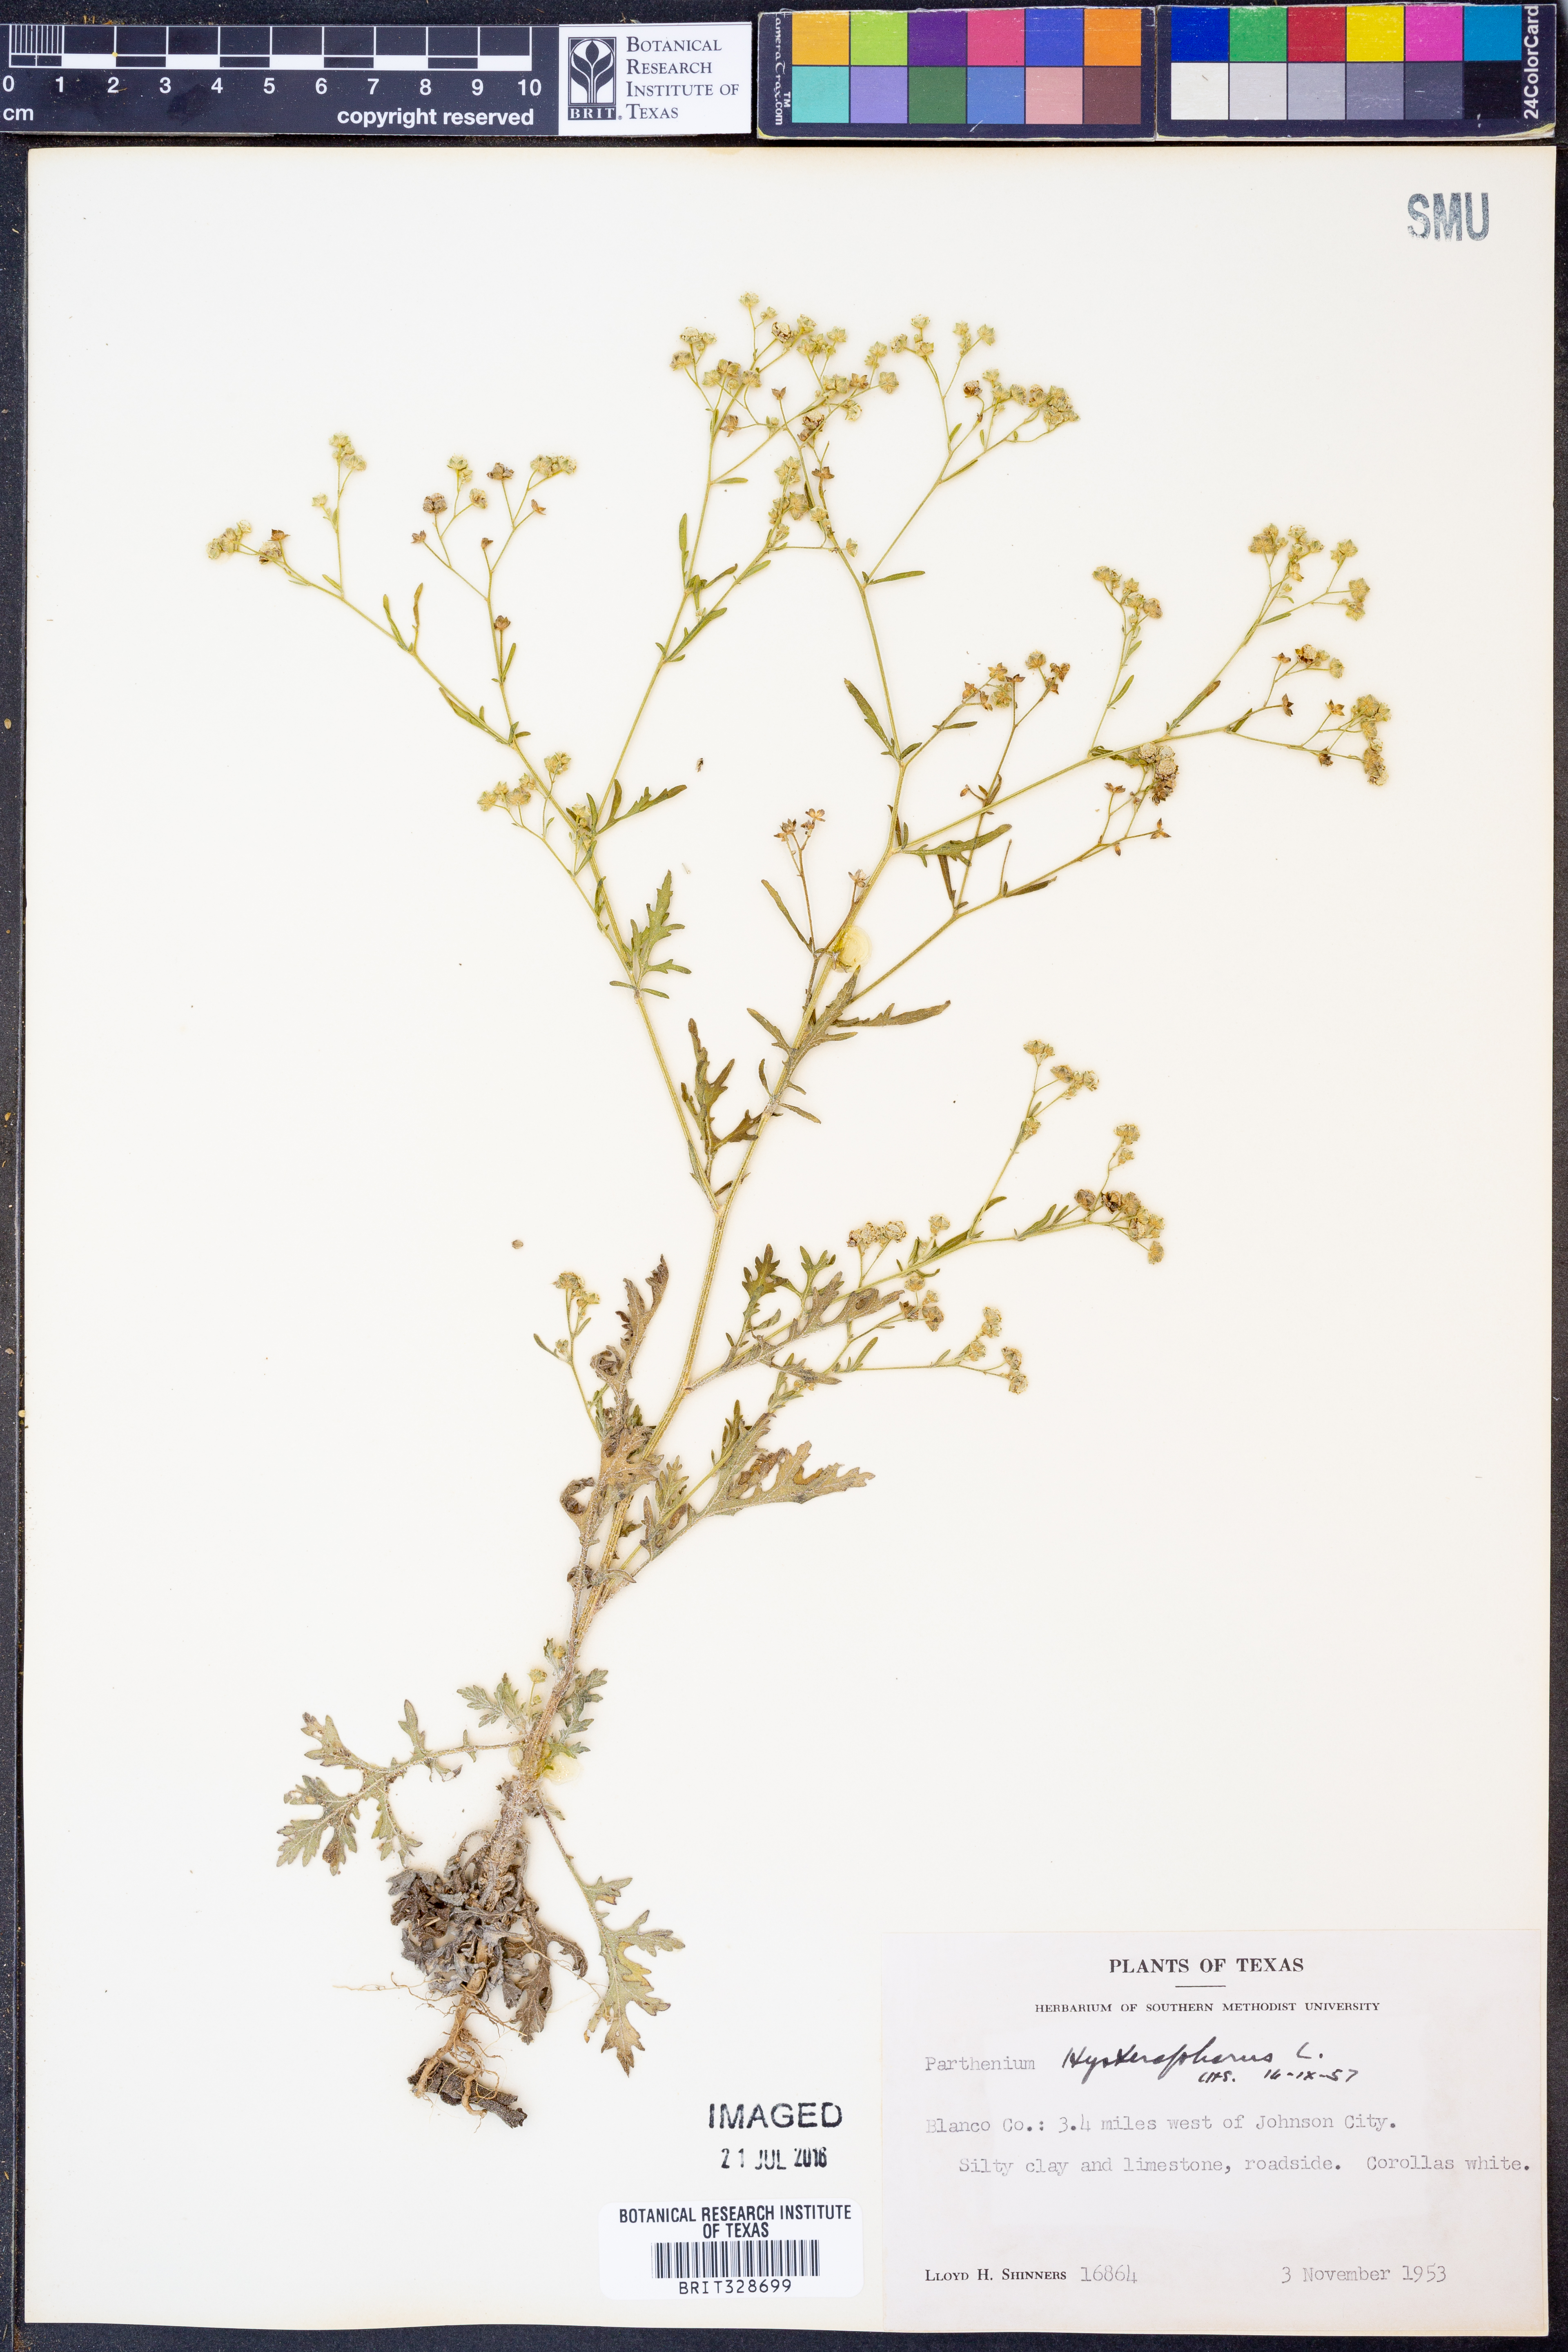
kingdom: Plantae
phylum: Tracheophyta
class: Magnoliopsida
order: Asterales
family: Asteraceae
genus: Parthenium
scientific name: Parthenium hysterophorus
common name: Santa maria feverfew
